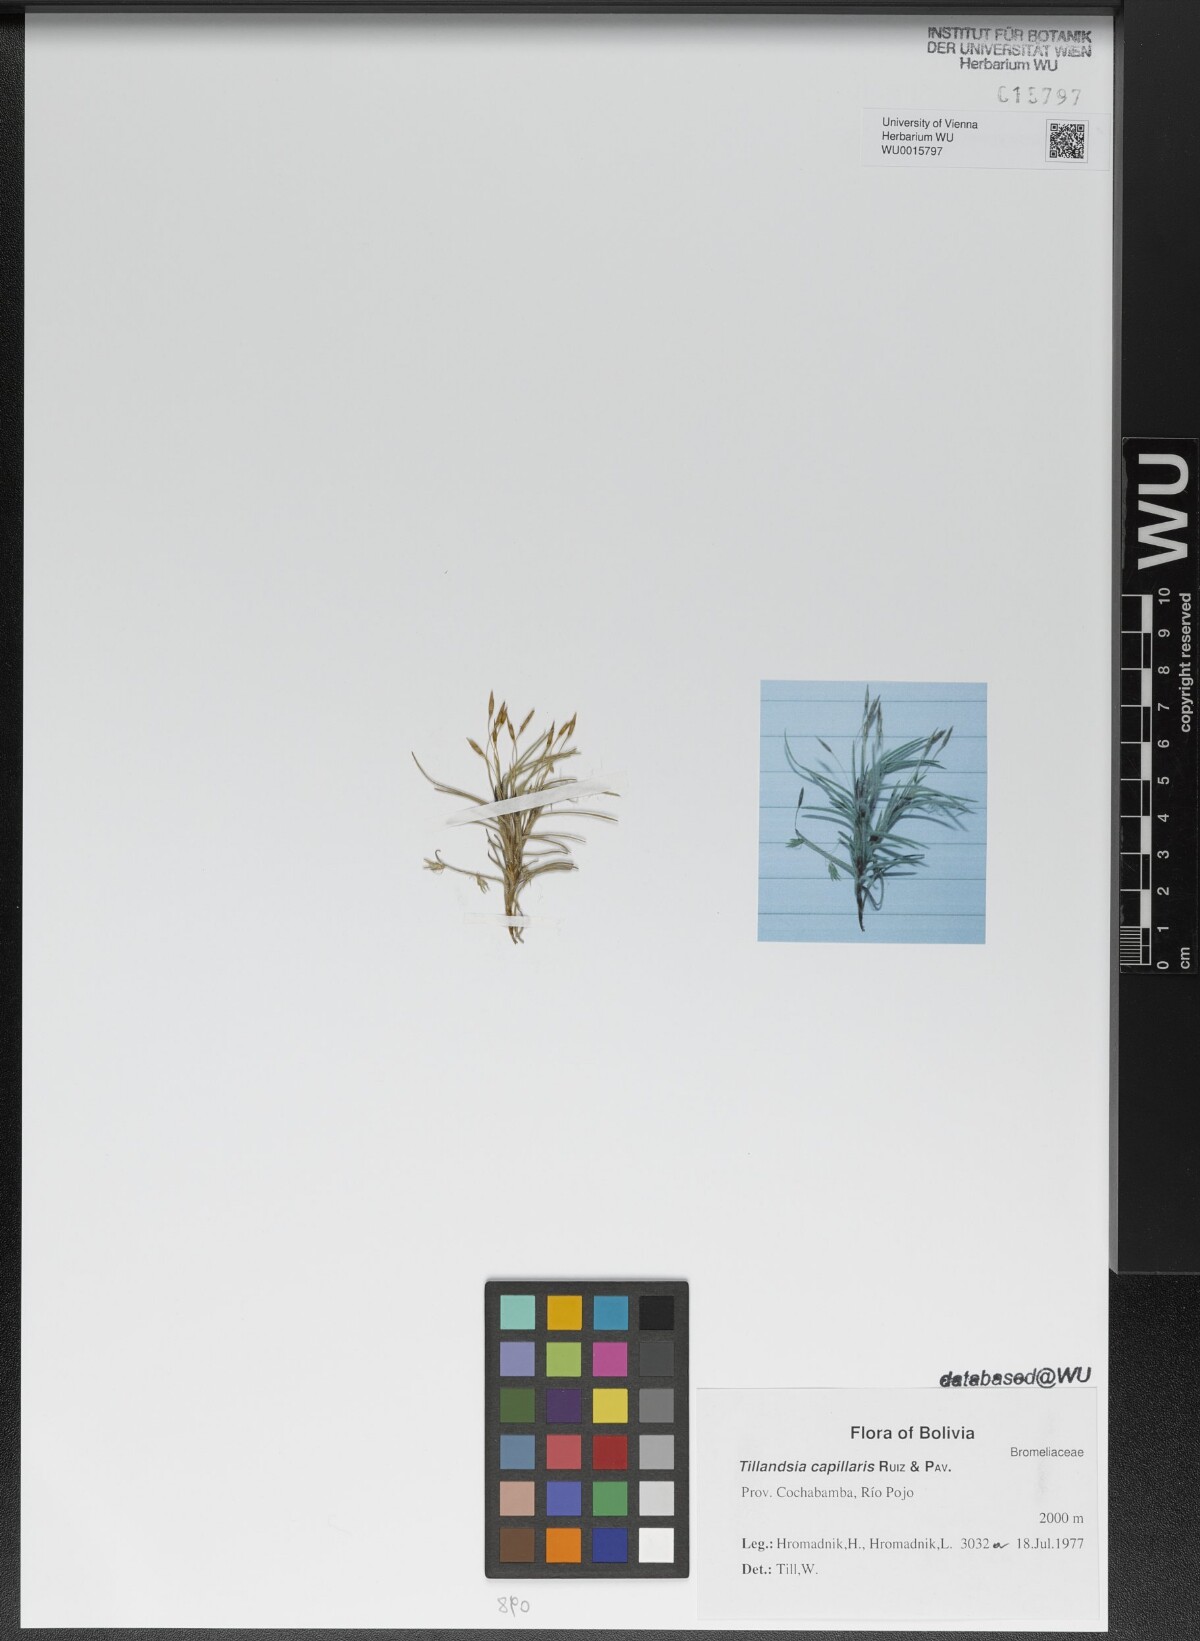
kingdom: Plantae
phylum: Tracheophyta
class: Liliopsida
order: Poales
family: Bromeliaceae
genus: Tillandsia
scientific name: Tillandsia capillaris
